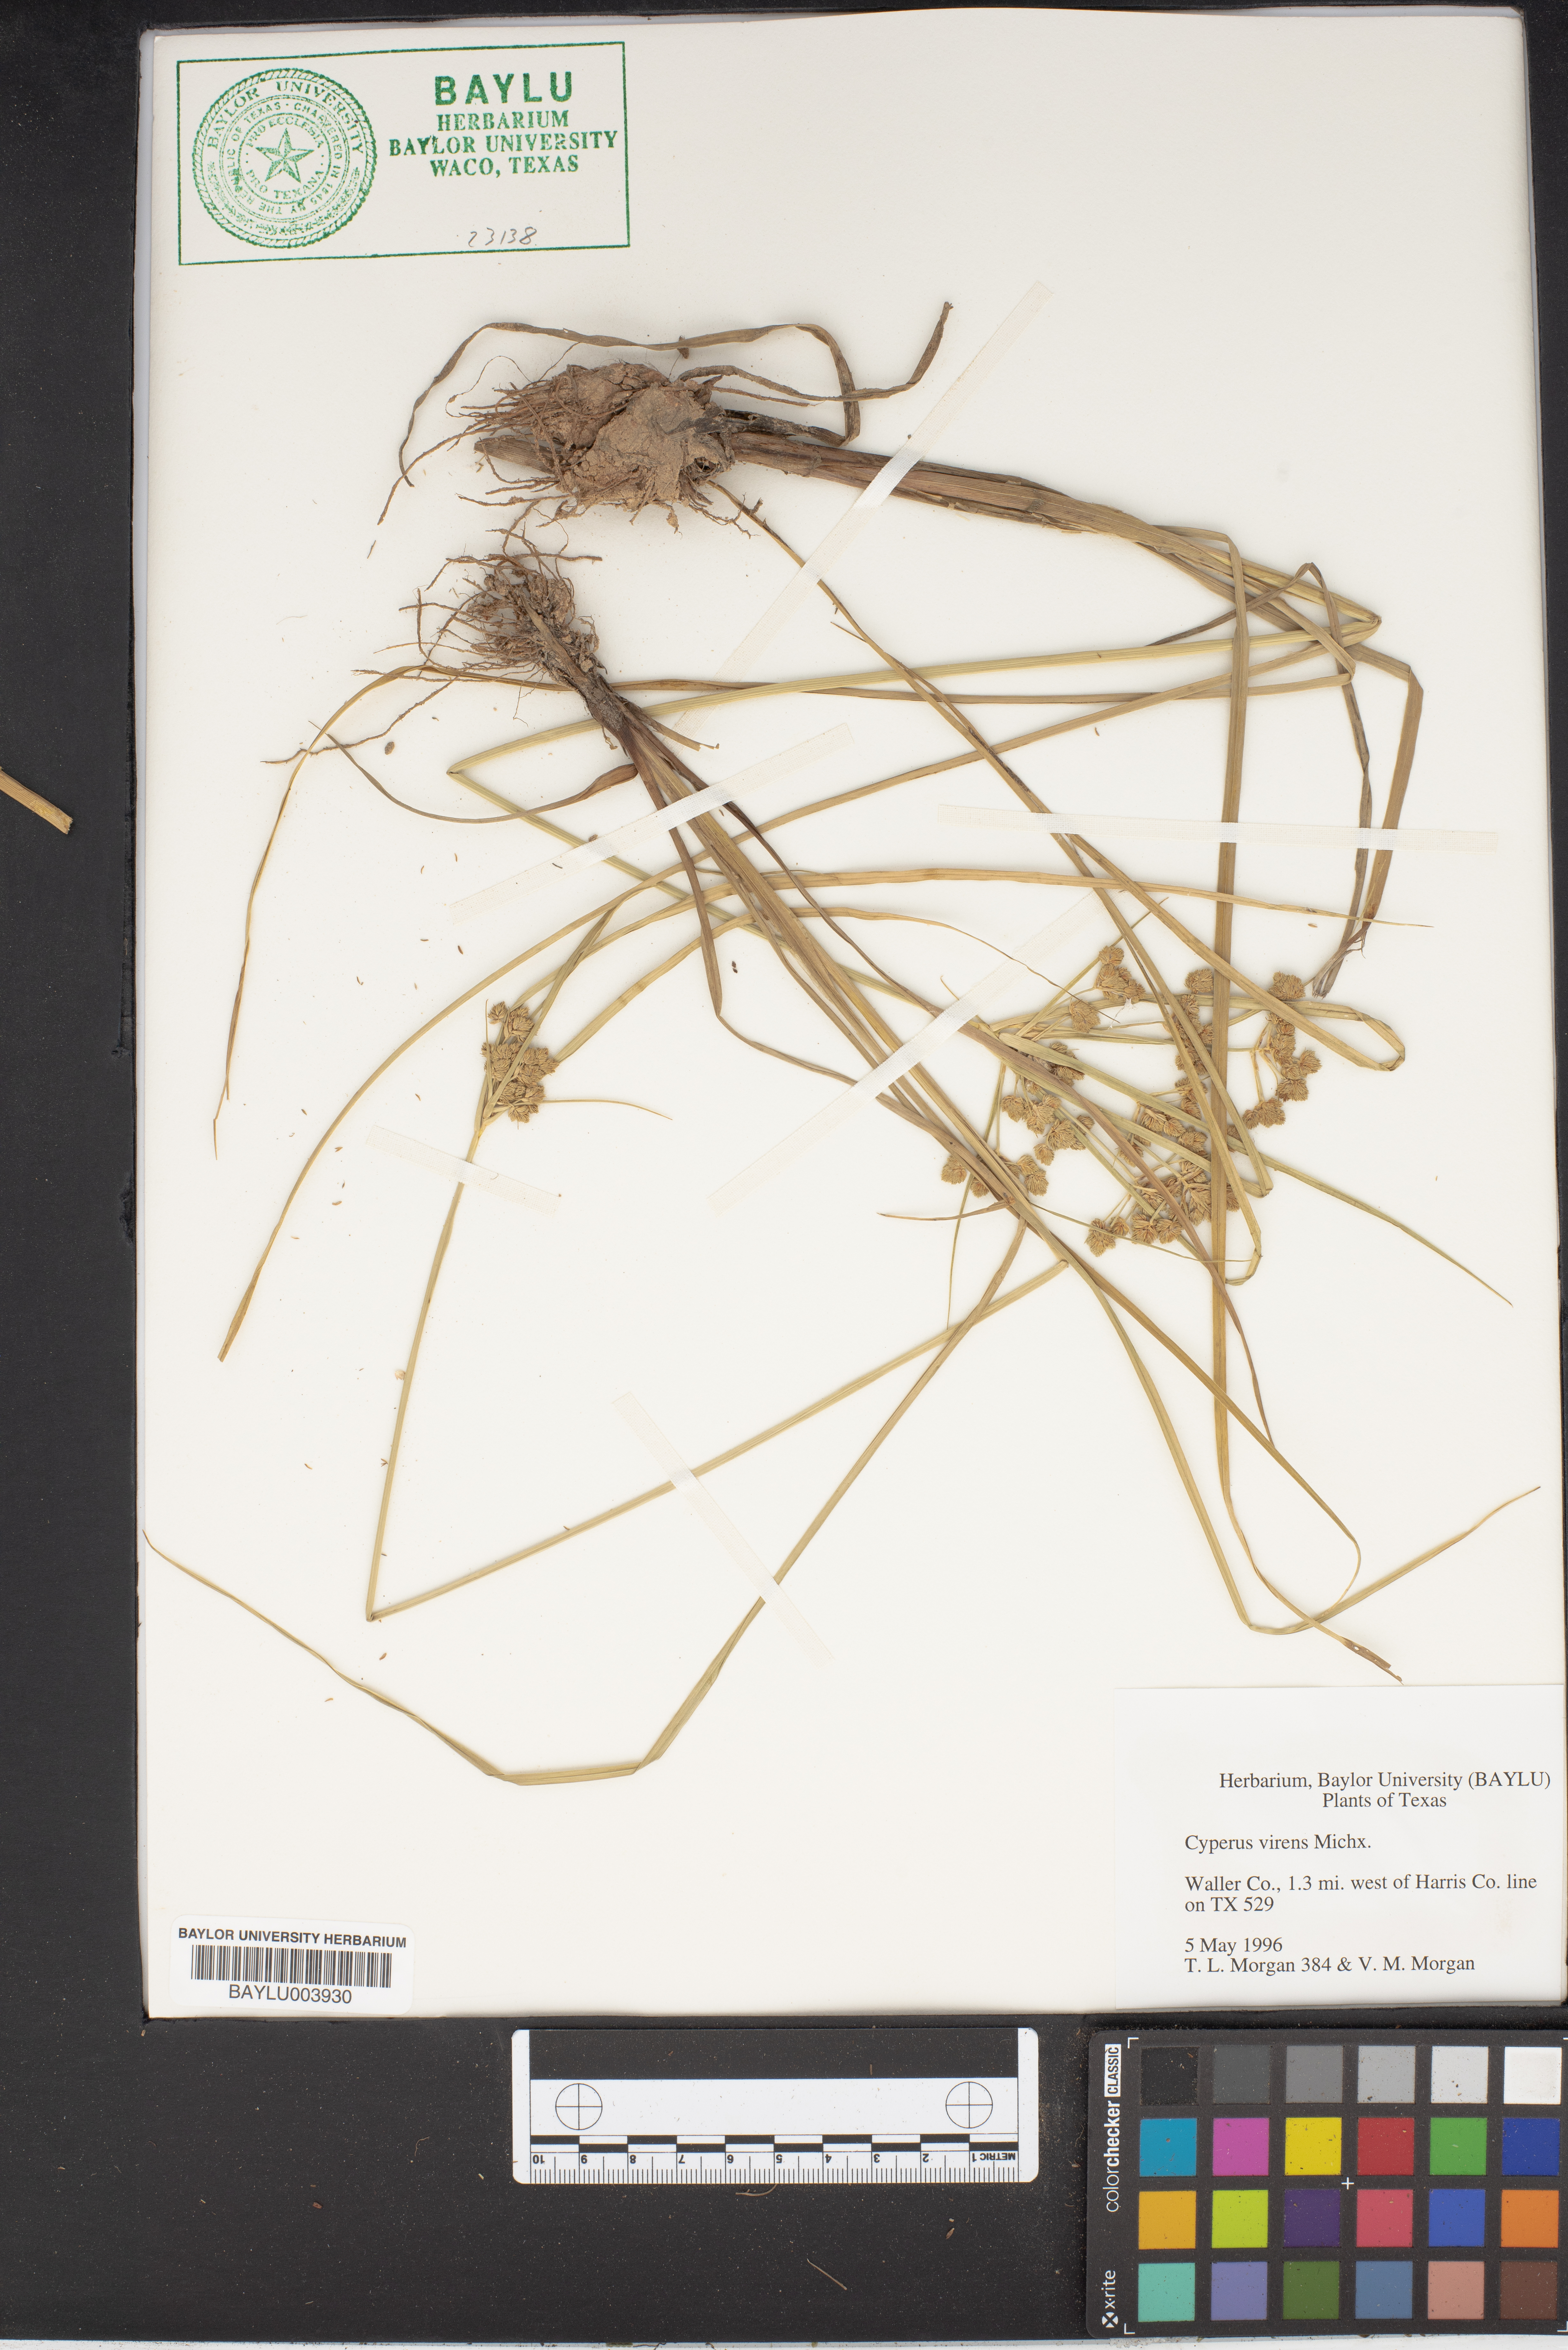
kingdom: Plantae
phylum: Tracheophyta
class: Liliopsida
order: Poales
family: Cyperaceae
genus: Cyperus
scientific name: Cyperus virens
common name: Green flatsedge
